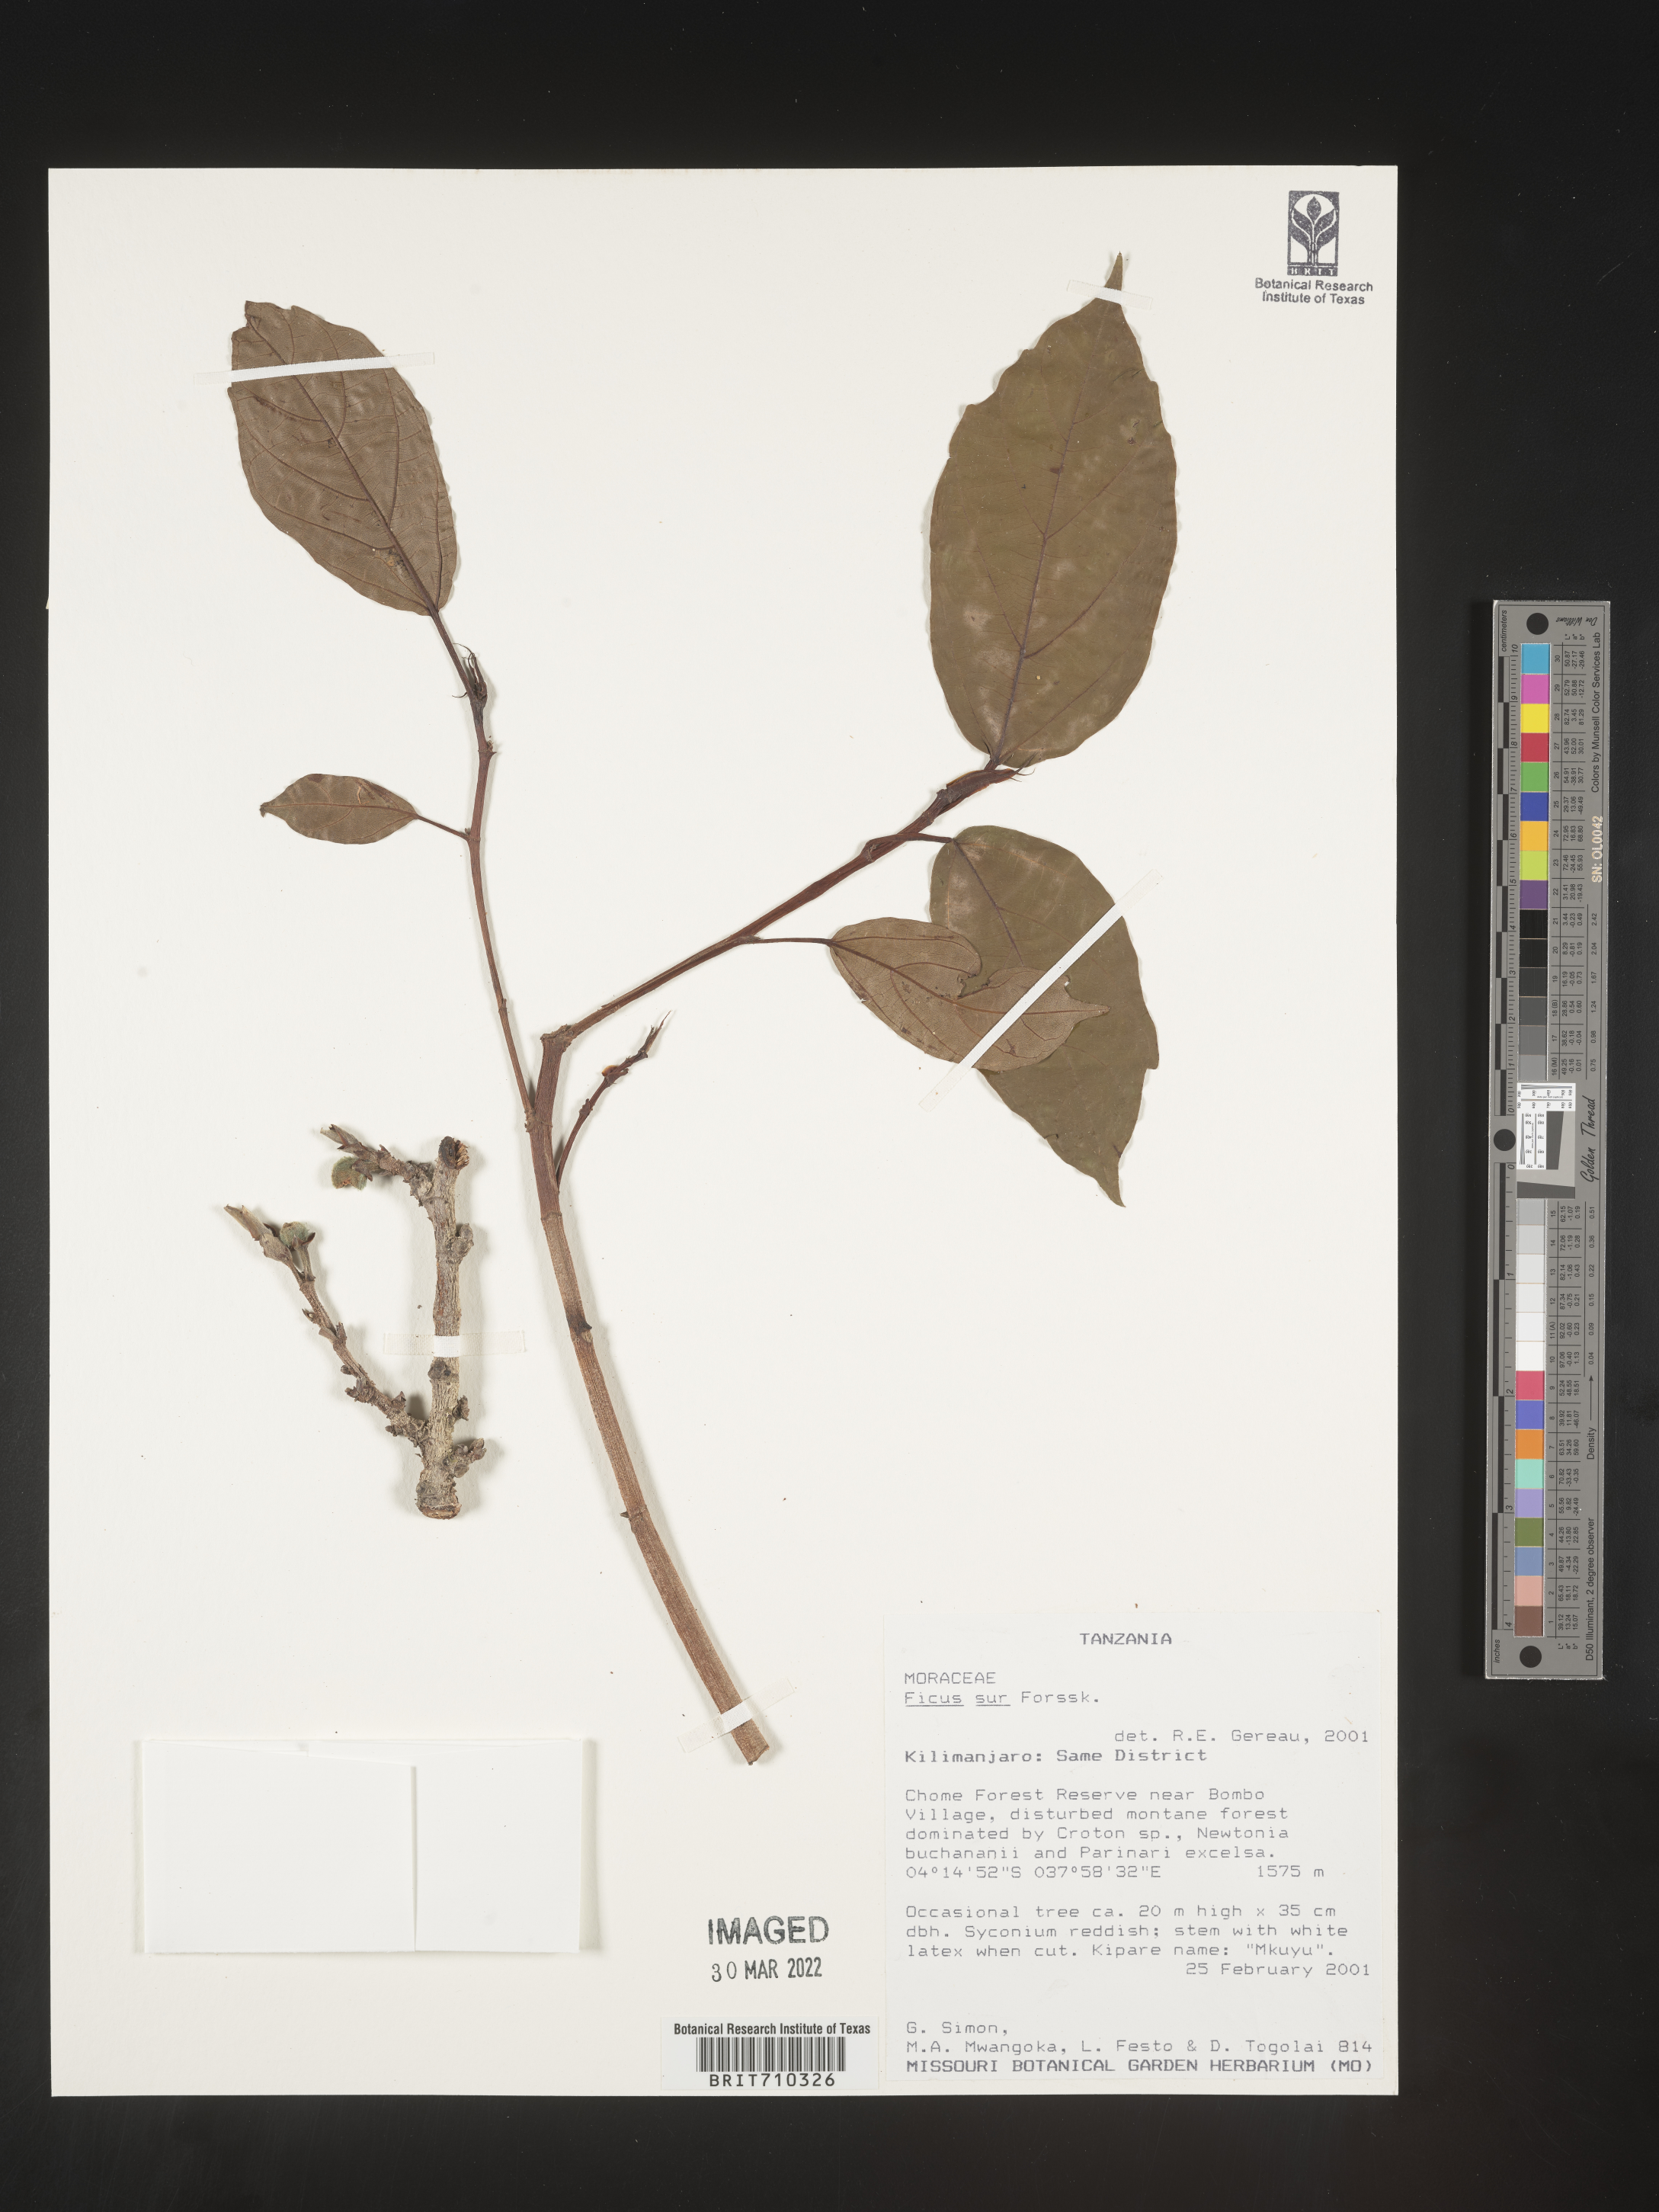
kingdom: Plantae
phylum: Tracheophyta
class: Magnoliopsida
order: Rosales
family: Moraceae
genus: Ficus
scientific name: Ficus
